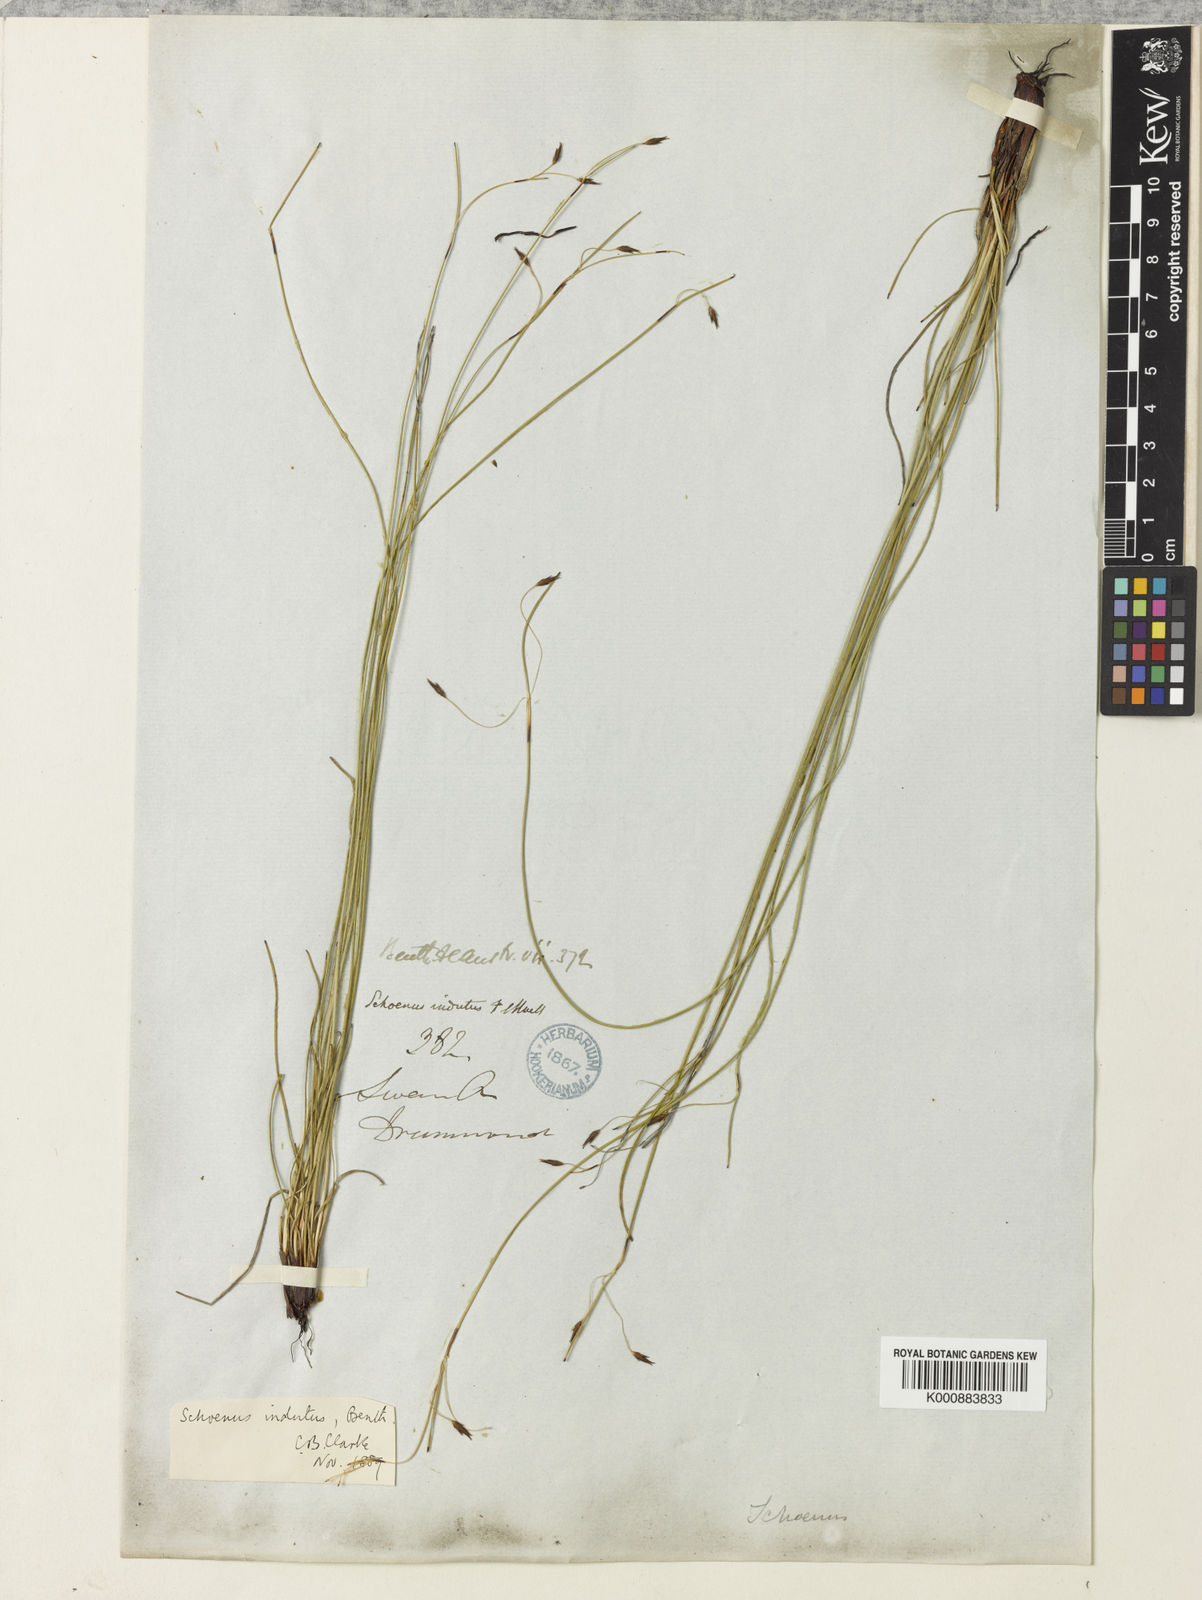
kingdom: Plantae
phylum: Tracheophyta
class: Liliopsida
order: Poales
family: Cyperaceae
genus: Schoenus
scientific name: Schoenus indutus
